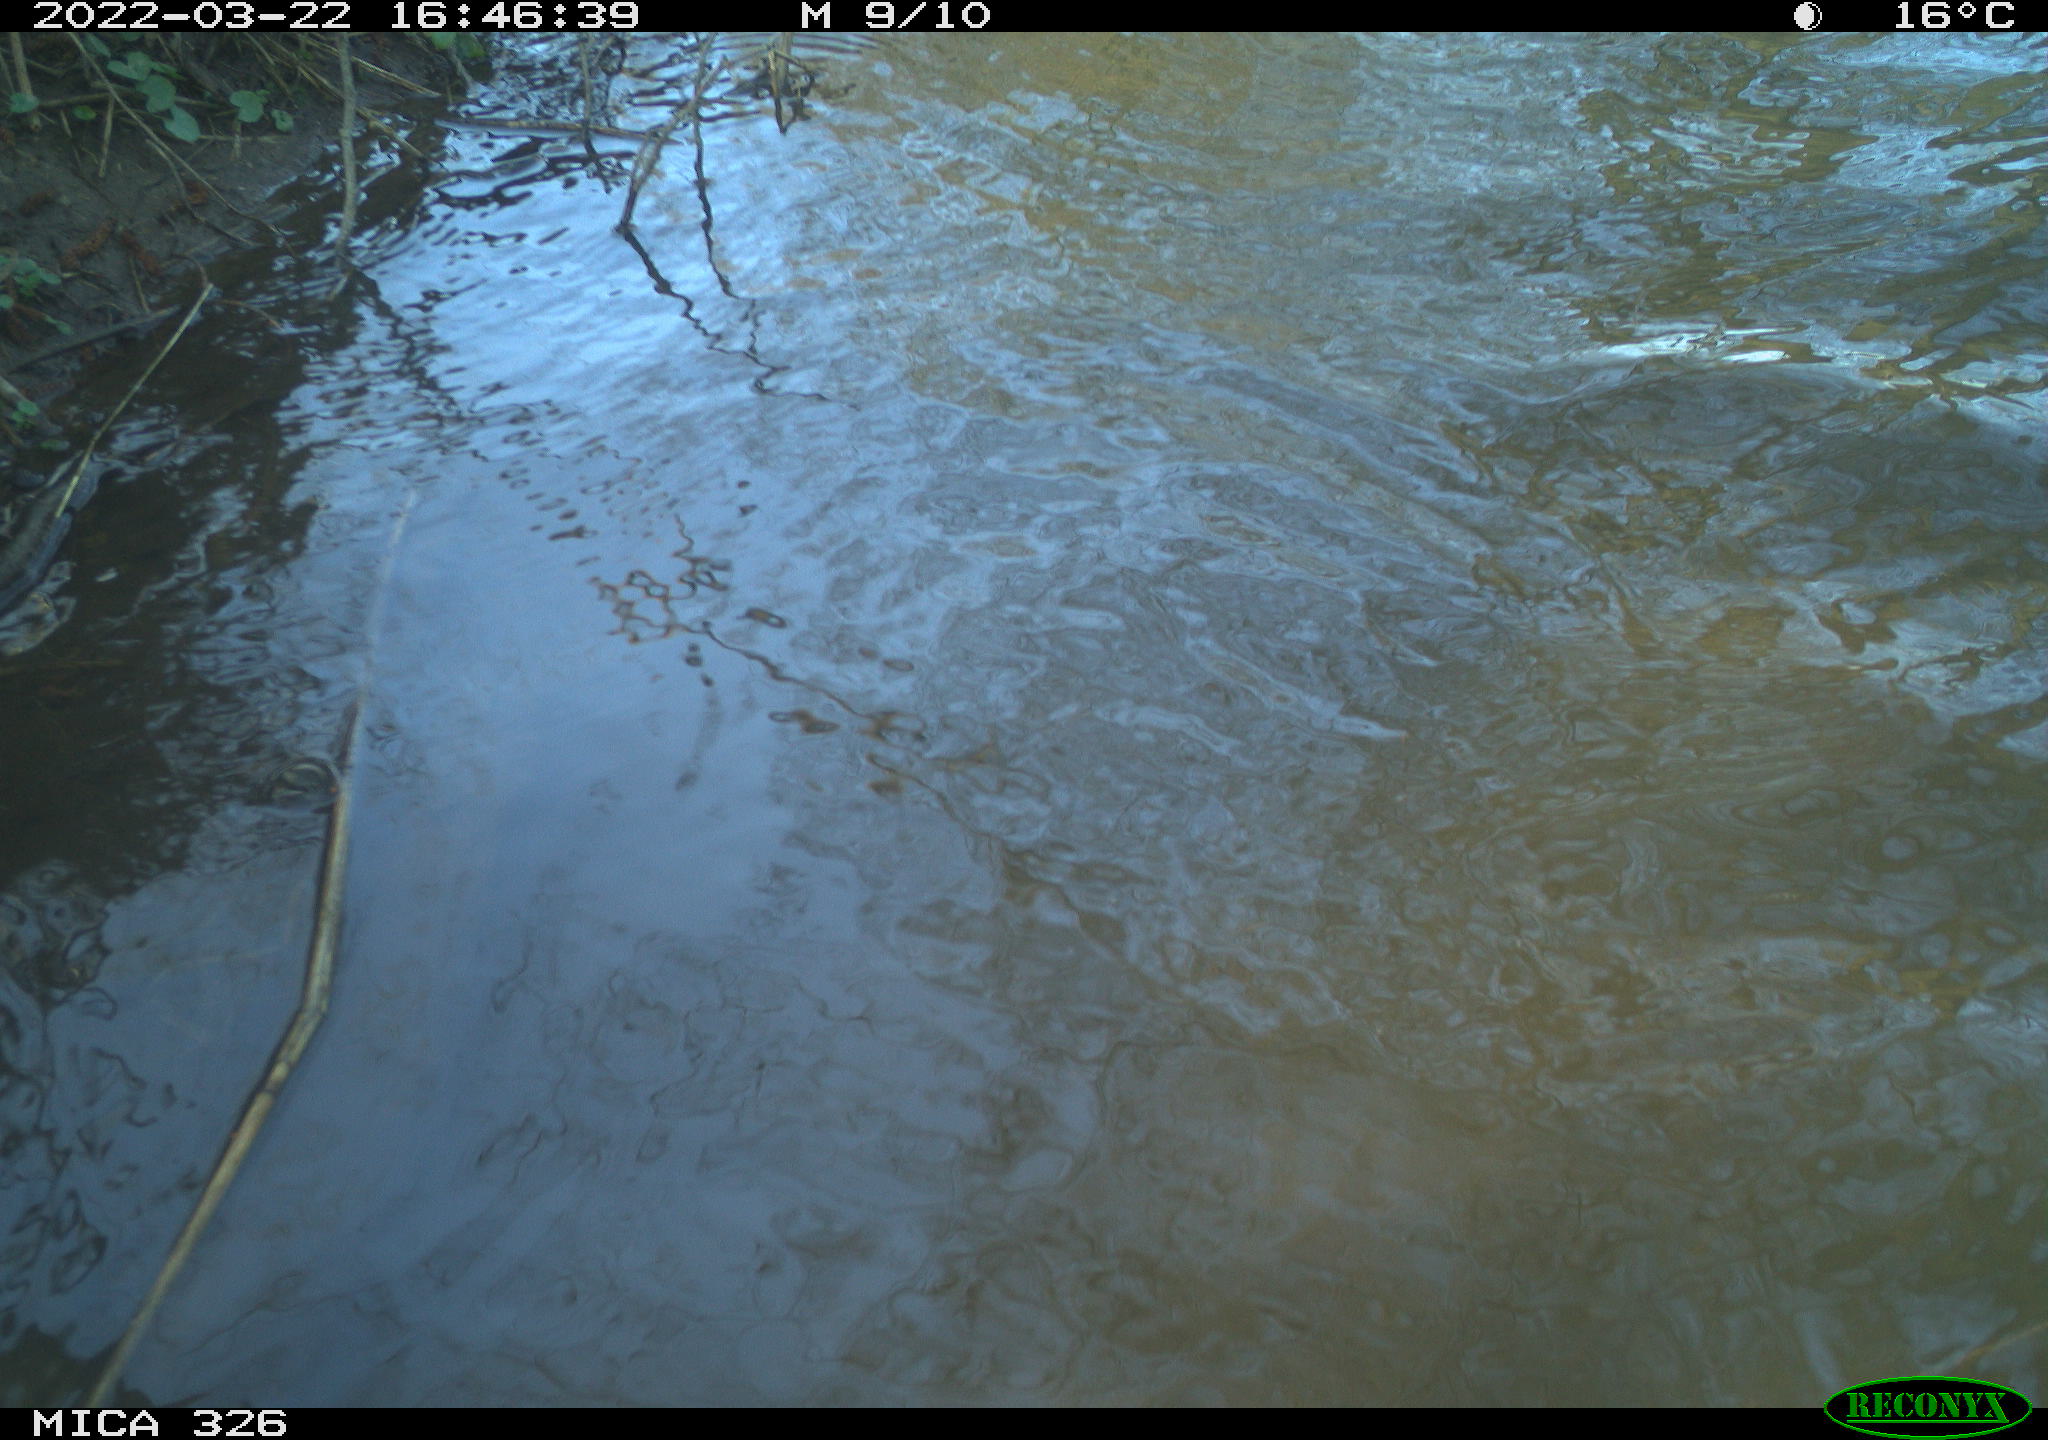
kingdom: Animalia
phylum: Chordata
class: Mammalia
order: Rodentia
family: Cricetidae
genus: Ondatra
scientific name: Ondatra zibethicus
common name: Muskrat
